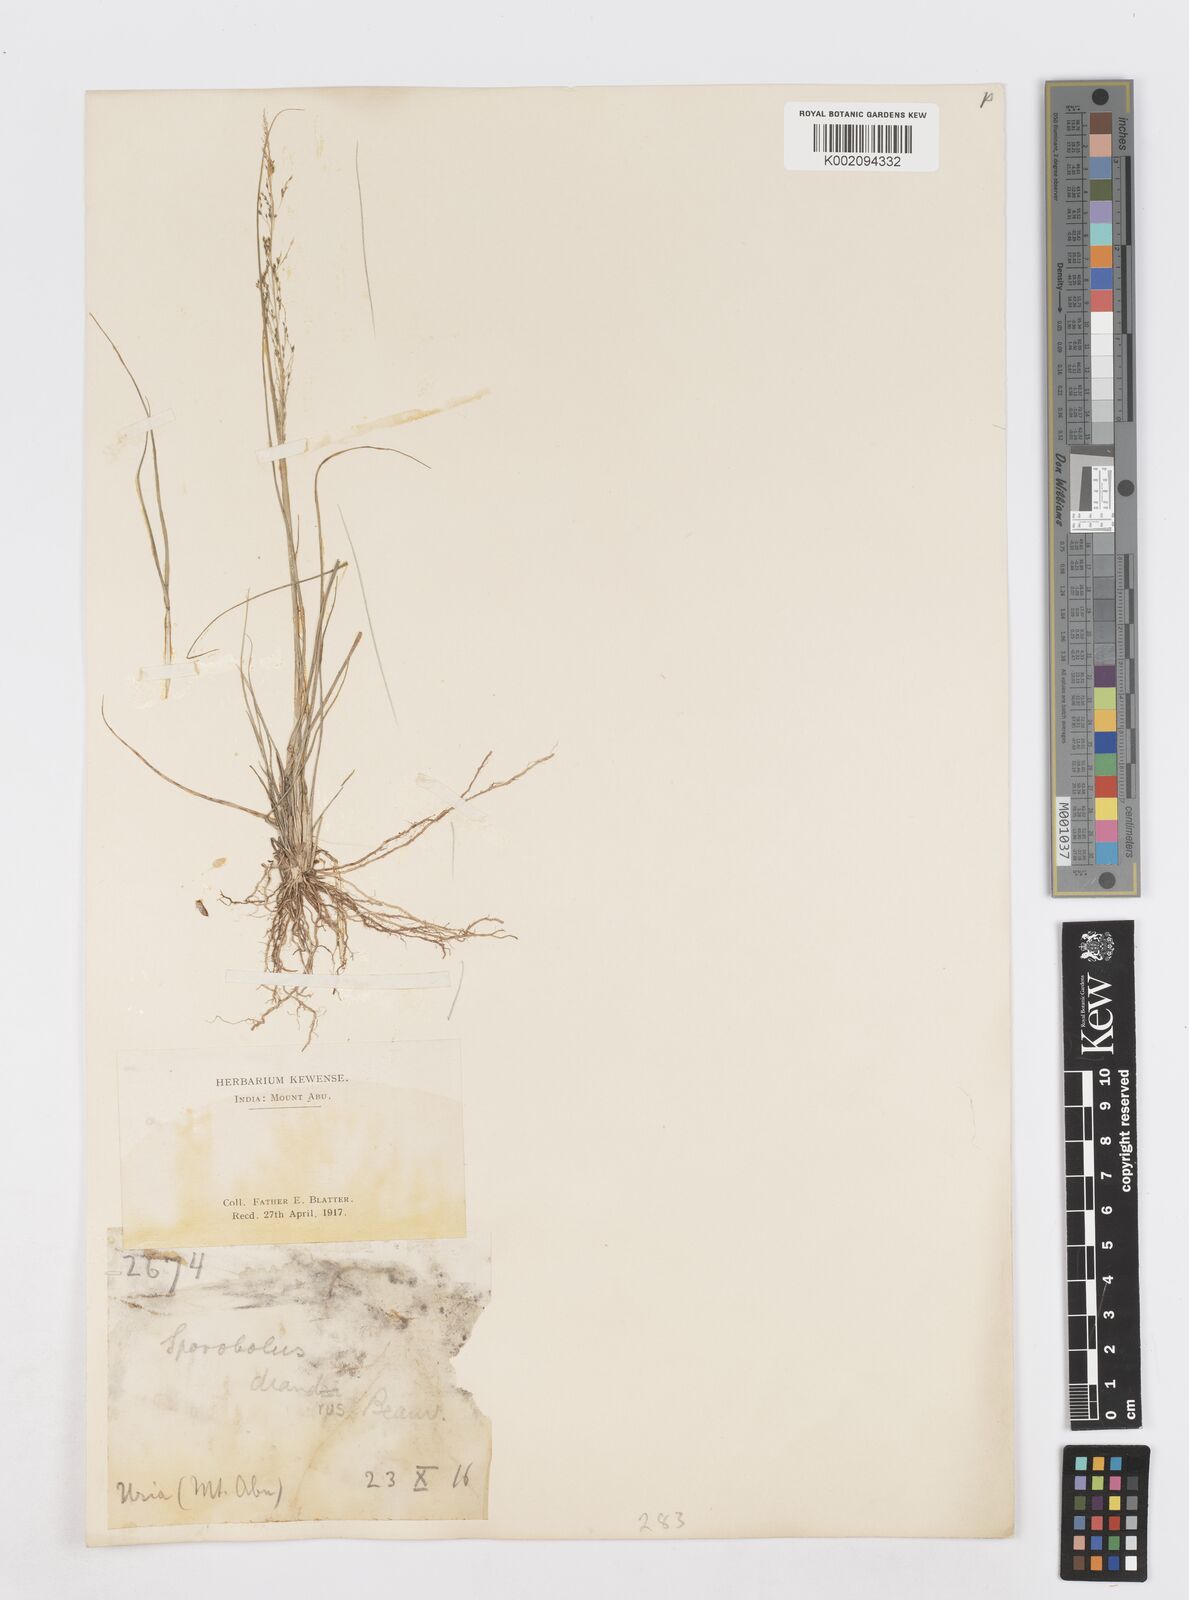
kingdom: Plantae
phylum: Tracheophyta
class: Liliopsida
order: Poales
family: Poaceae
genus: Sporobolus
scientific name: Sporobolus diandrus
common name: Tussock dropseed
